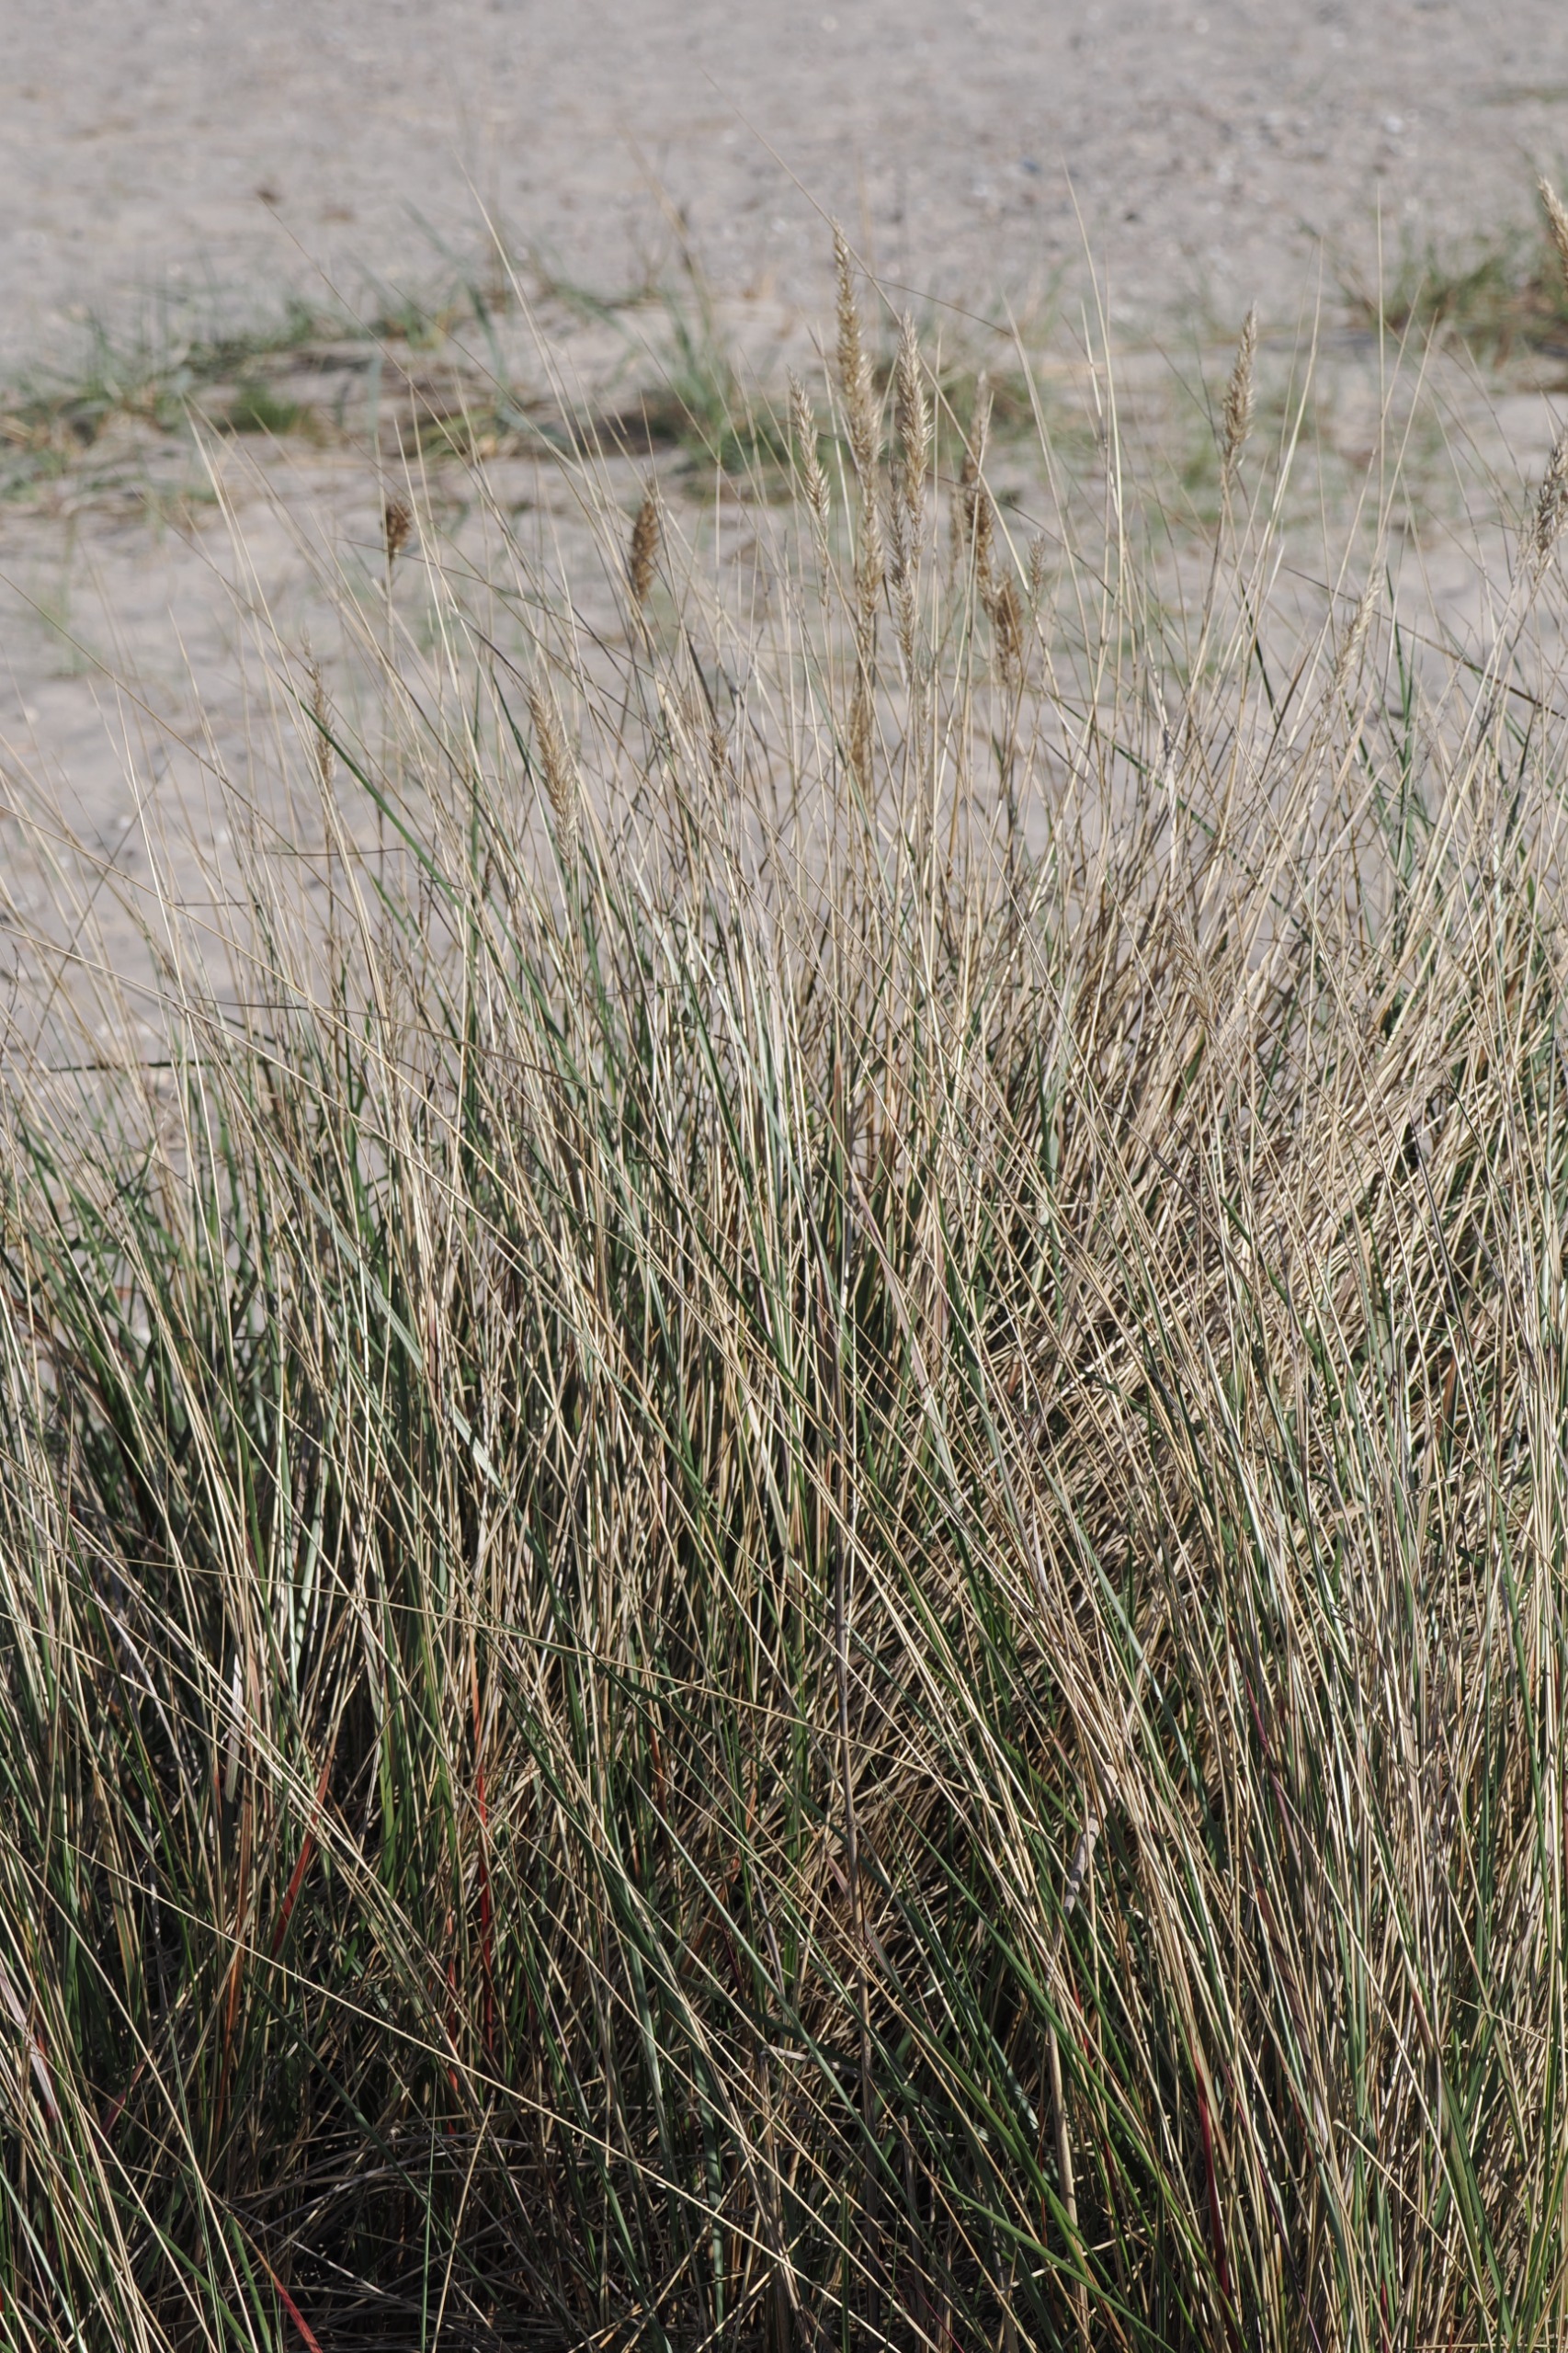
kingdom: Plantae
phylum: Tracheophyta
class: Liliopsida
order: Poales
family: Poaceae
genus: Calamagrostis
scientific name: Calamagrostis arenaria
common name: Sand-hjælme
